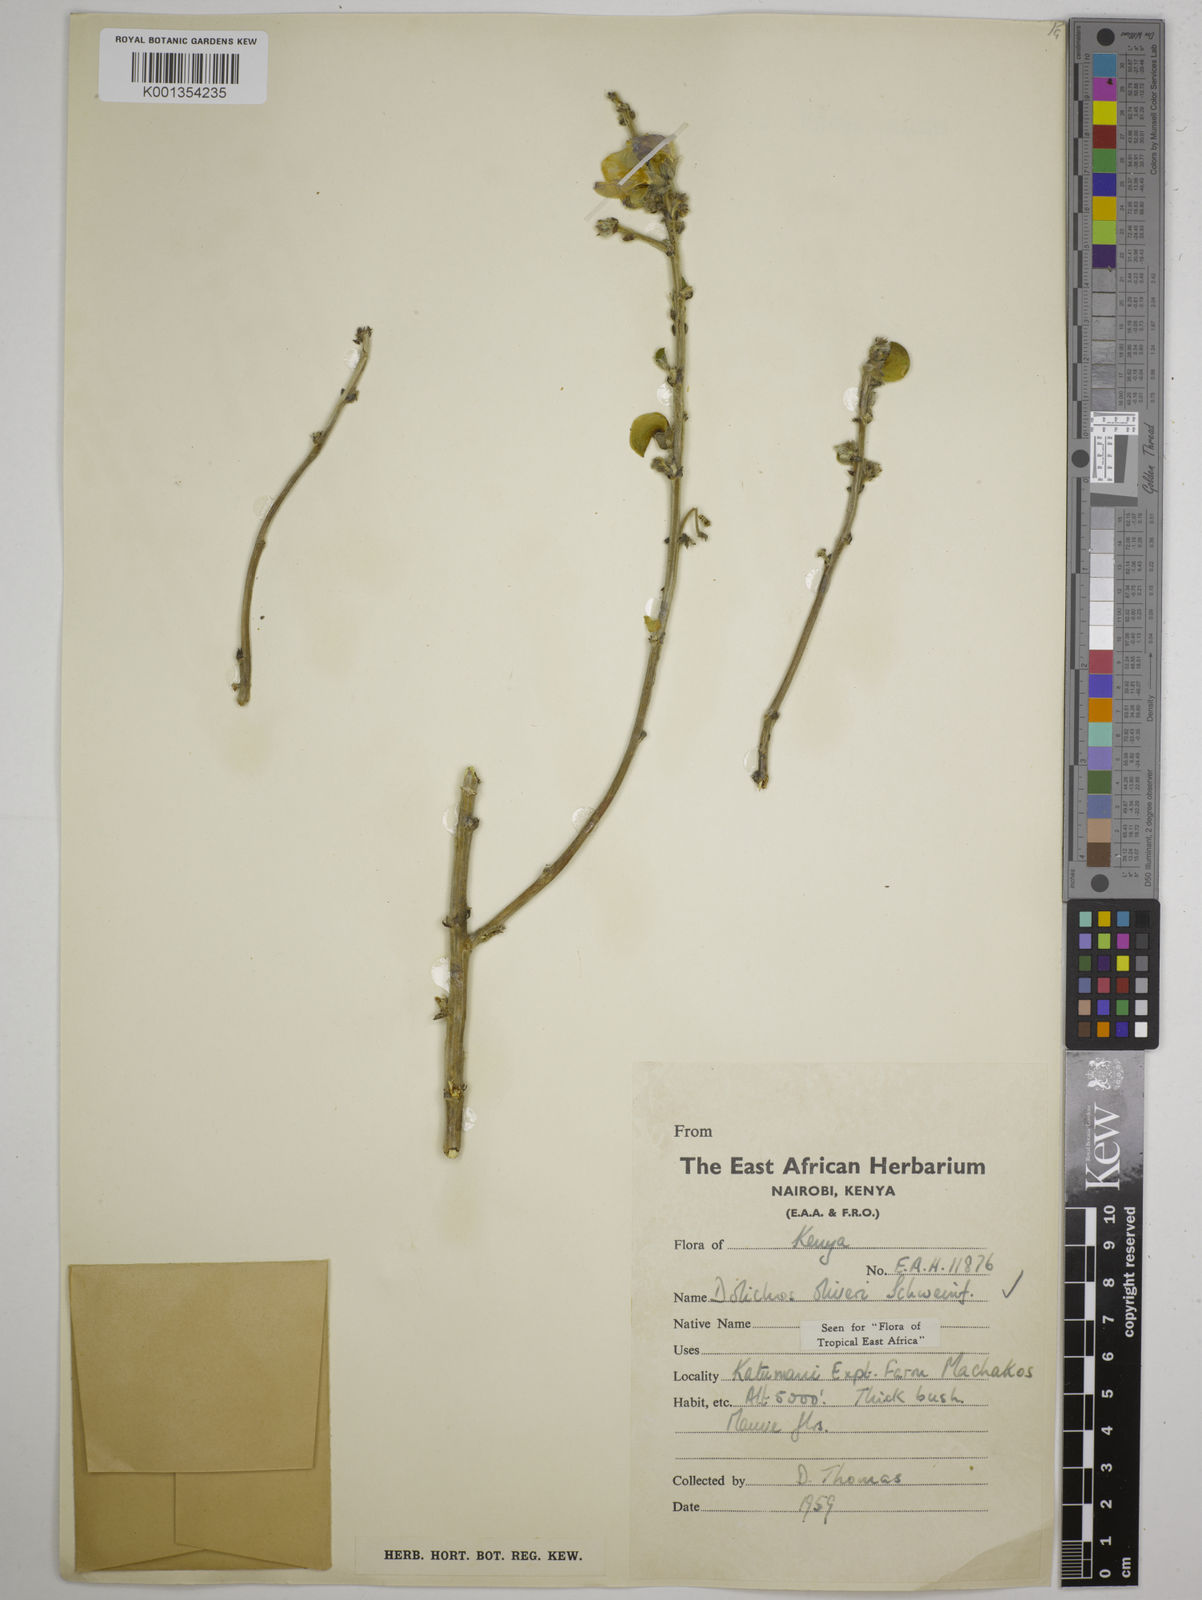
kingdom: Plantae
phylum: Tracheophyta
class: Magnoliopsida
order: Fabales
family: Fabaceae
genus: Dolichos
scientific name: Dolichos oliveri
